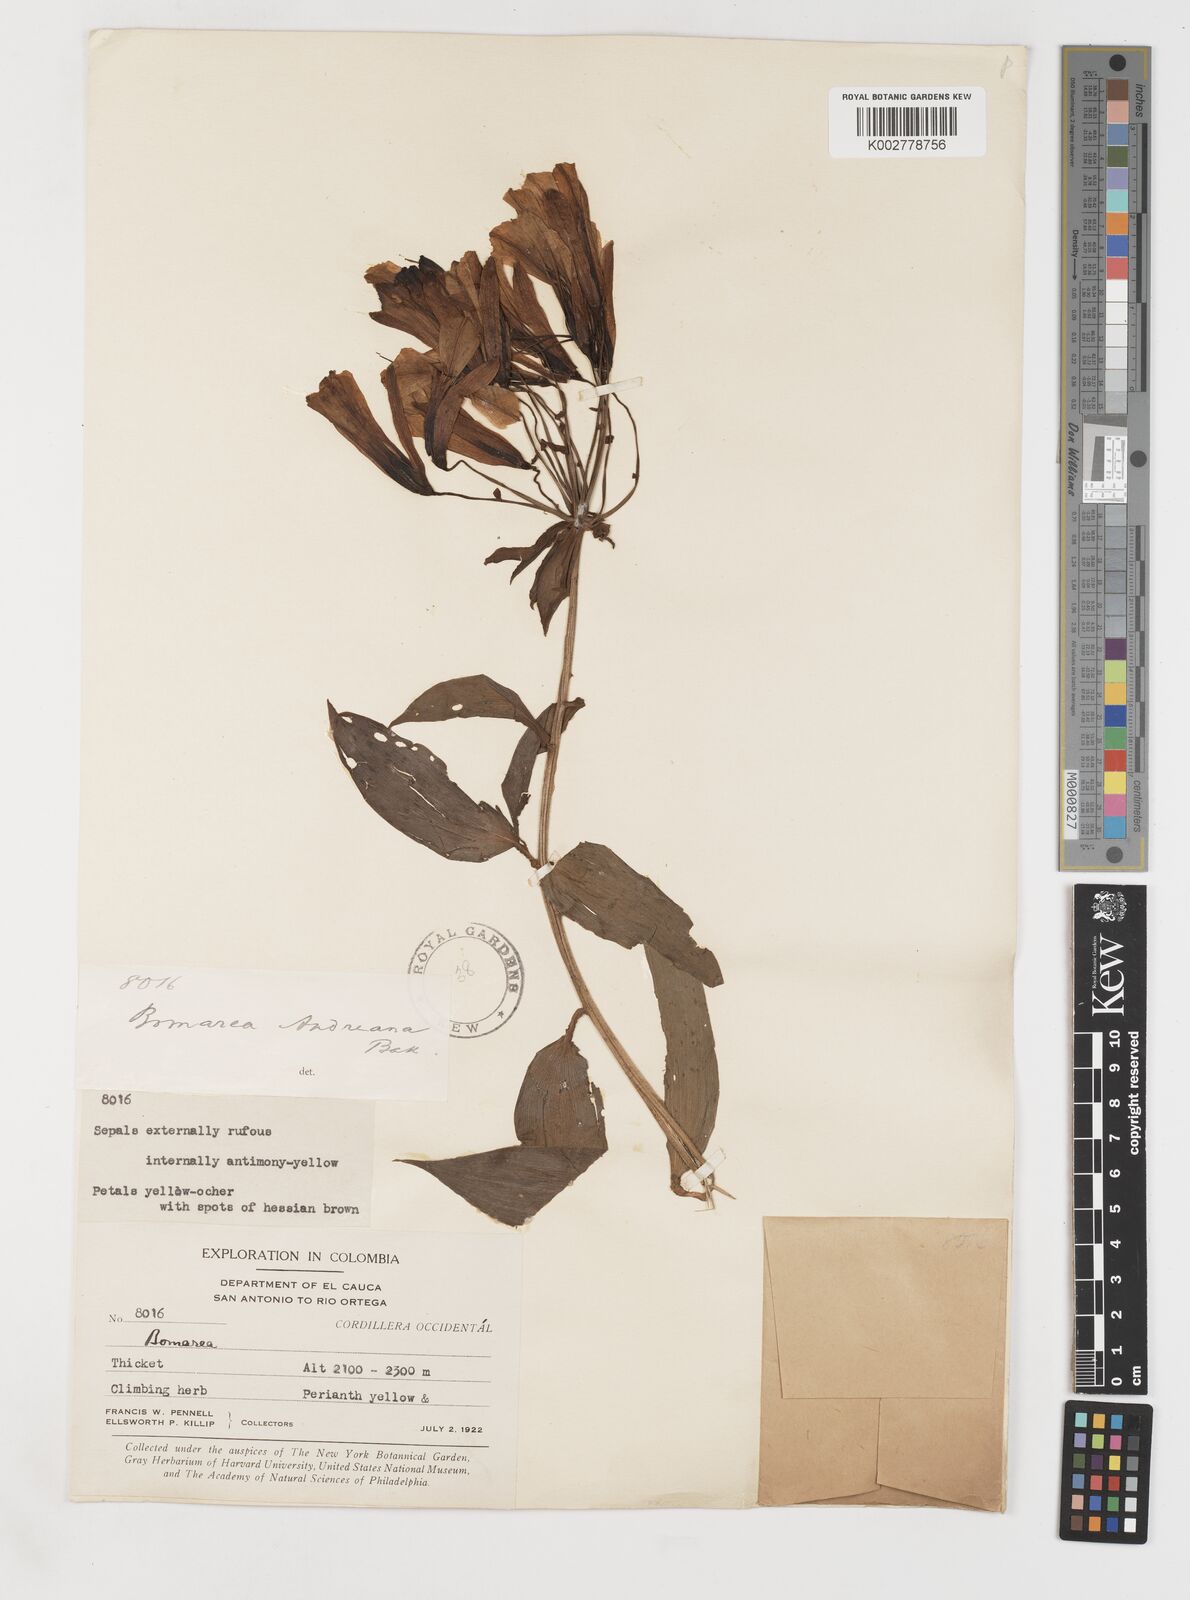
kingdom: Plantae
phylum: Tracheophyta
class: Liliopsida
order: Liliales
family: Alstroemeriaceae
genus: Bomarea
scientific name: Bomarea andreana
